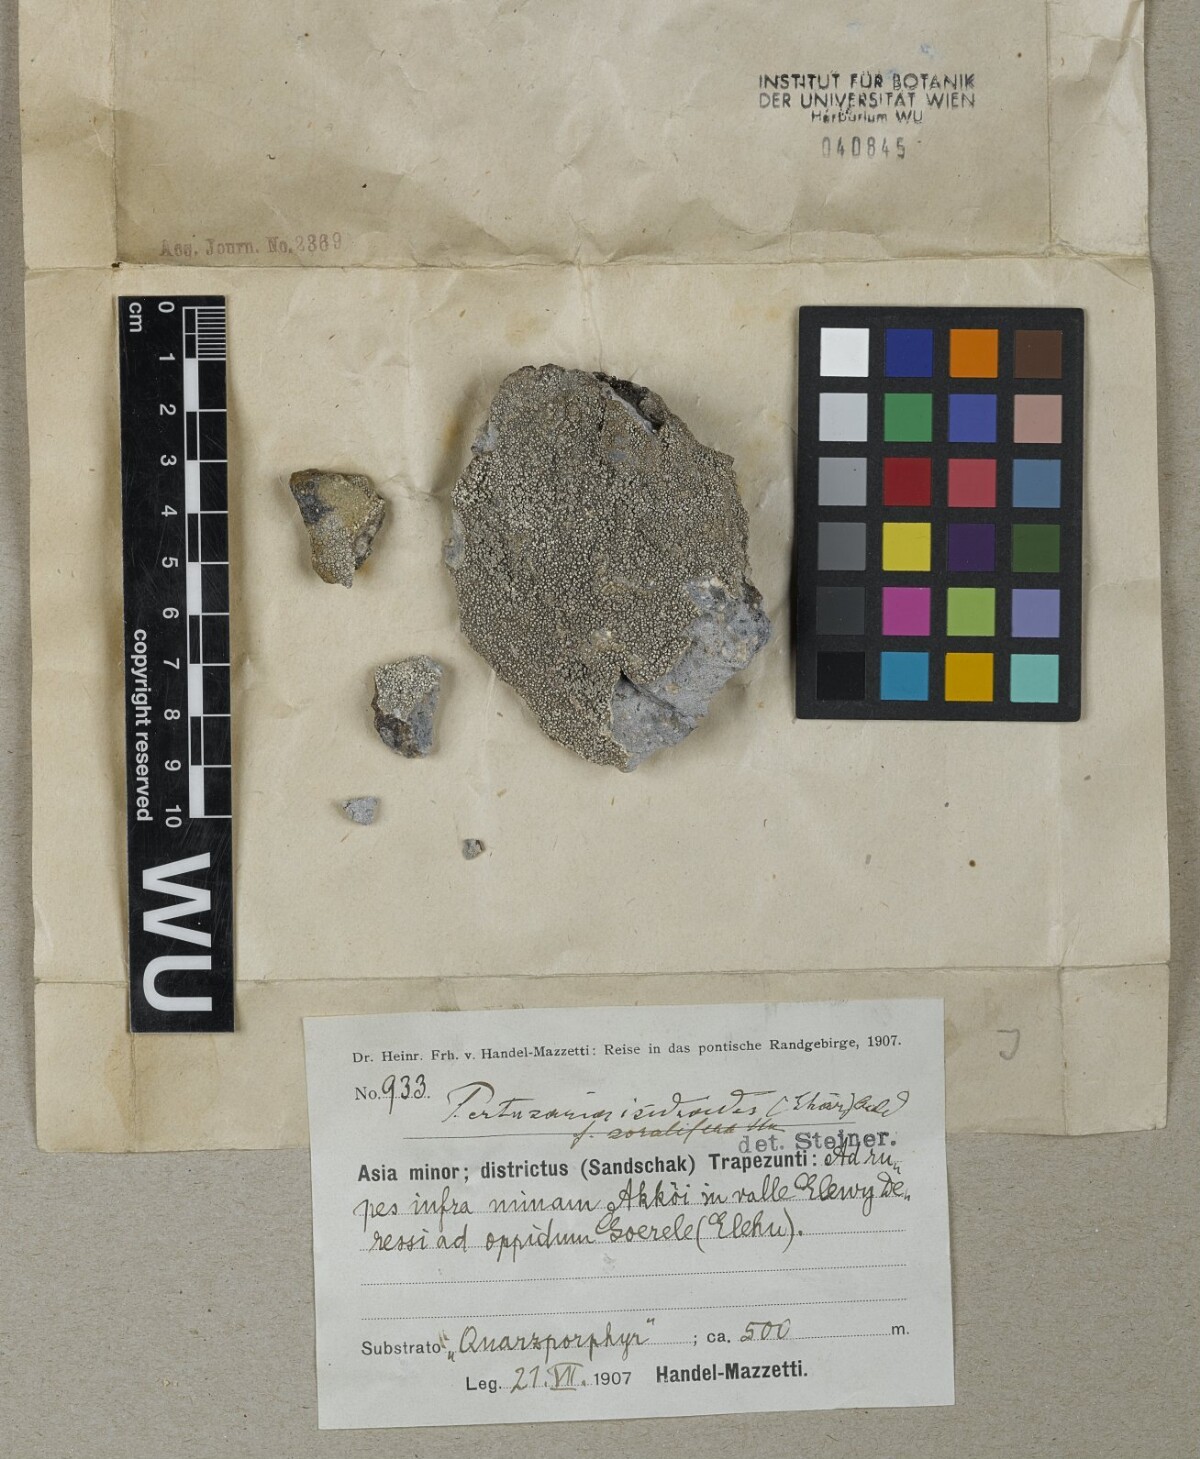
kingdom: Fungi
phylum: Ascomycota
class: Lecanoromycetes
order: Pertusariales
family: Pertusariaceae
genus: Lepra
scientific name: Lepra schaereri
